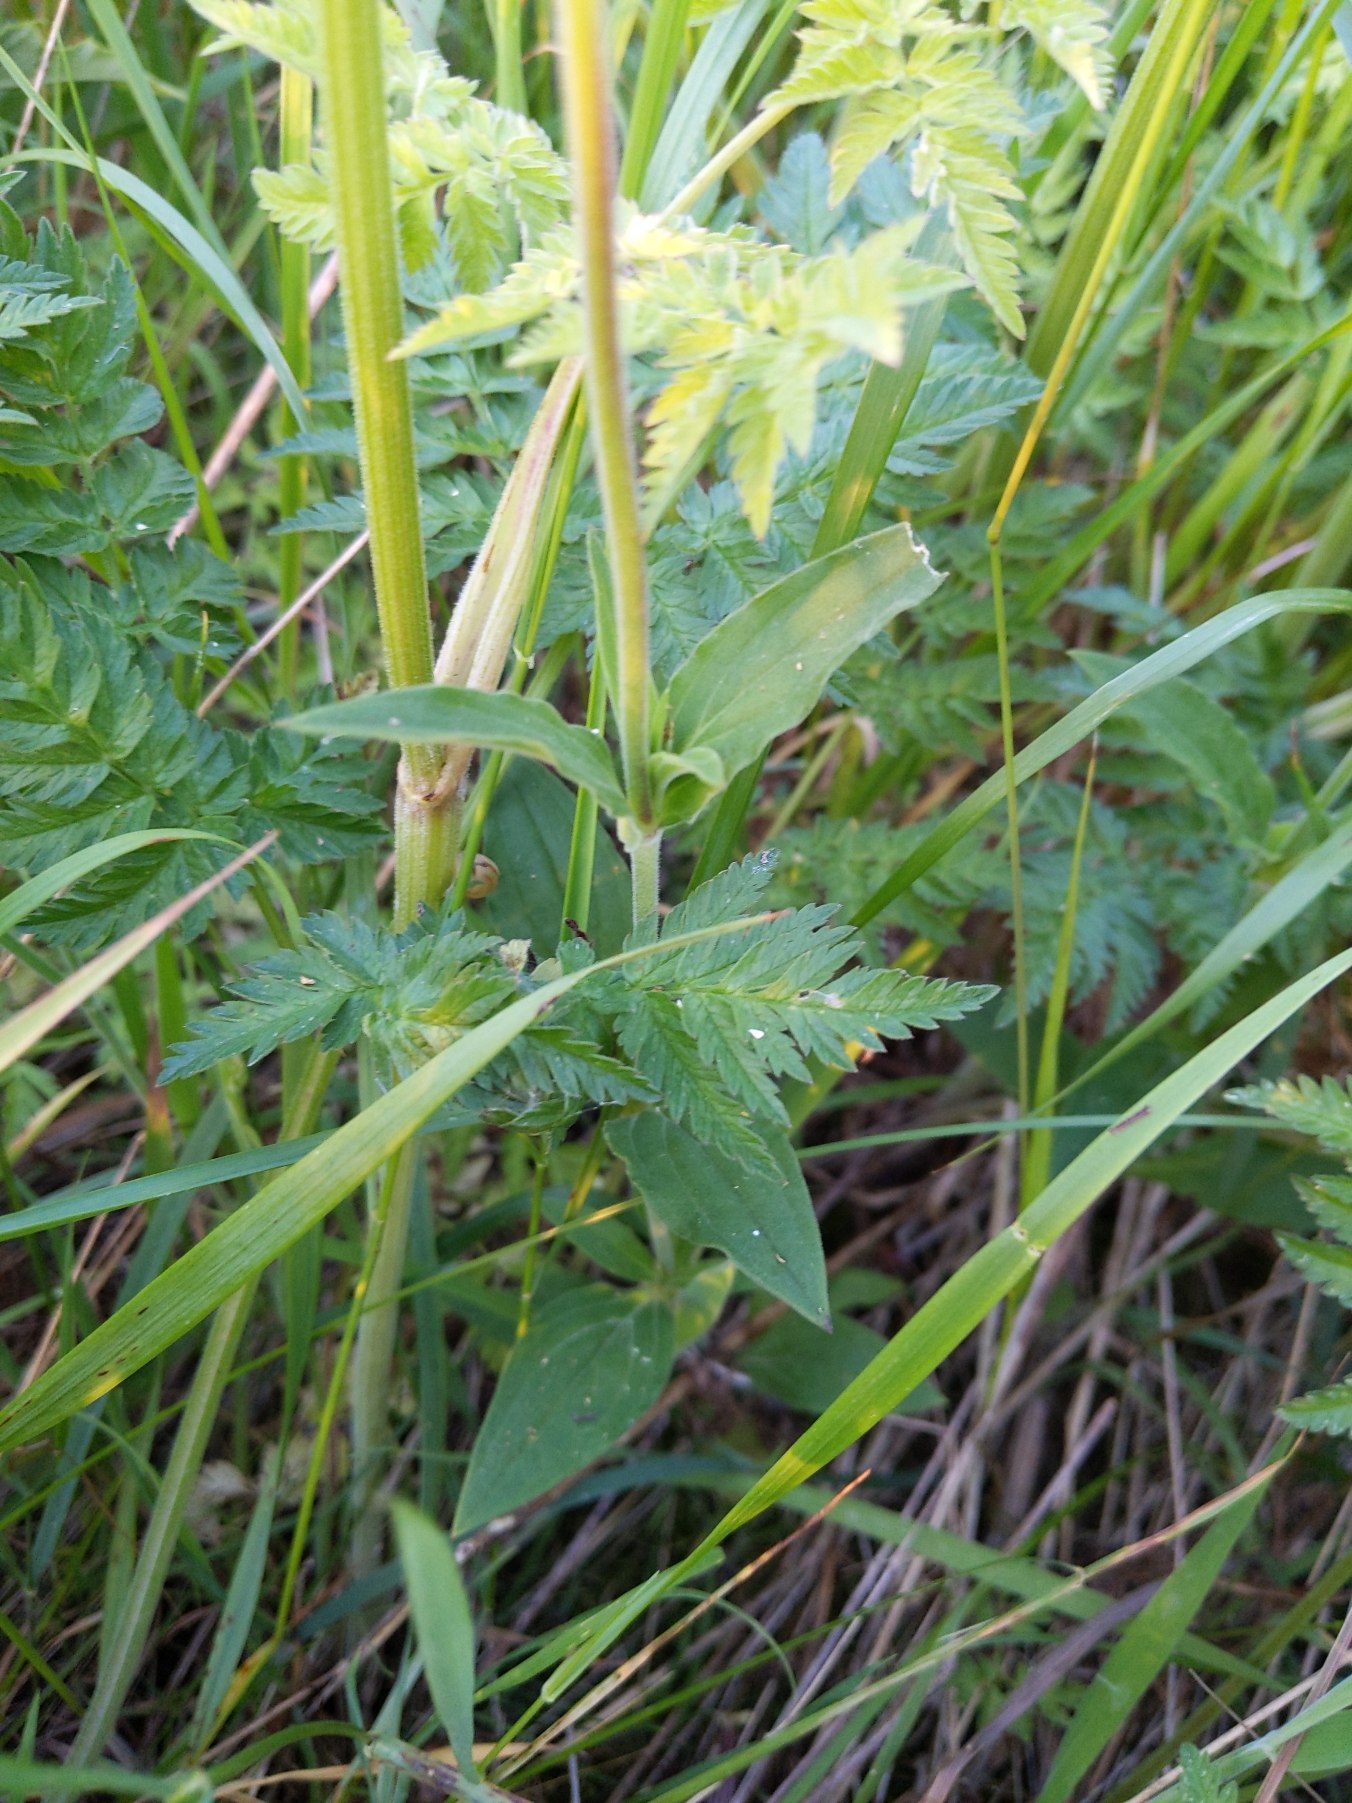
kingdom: Plantae
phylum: Tracheophyta
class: Magnoliopsida
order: Caryophyllales
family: Caryophyllaceae
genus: Silene
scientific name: Silene latifolia
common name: Aftenpragtstjerne
